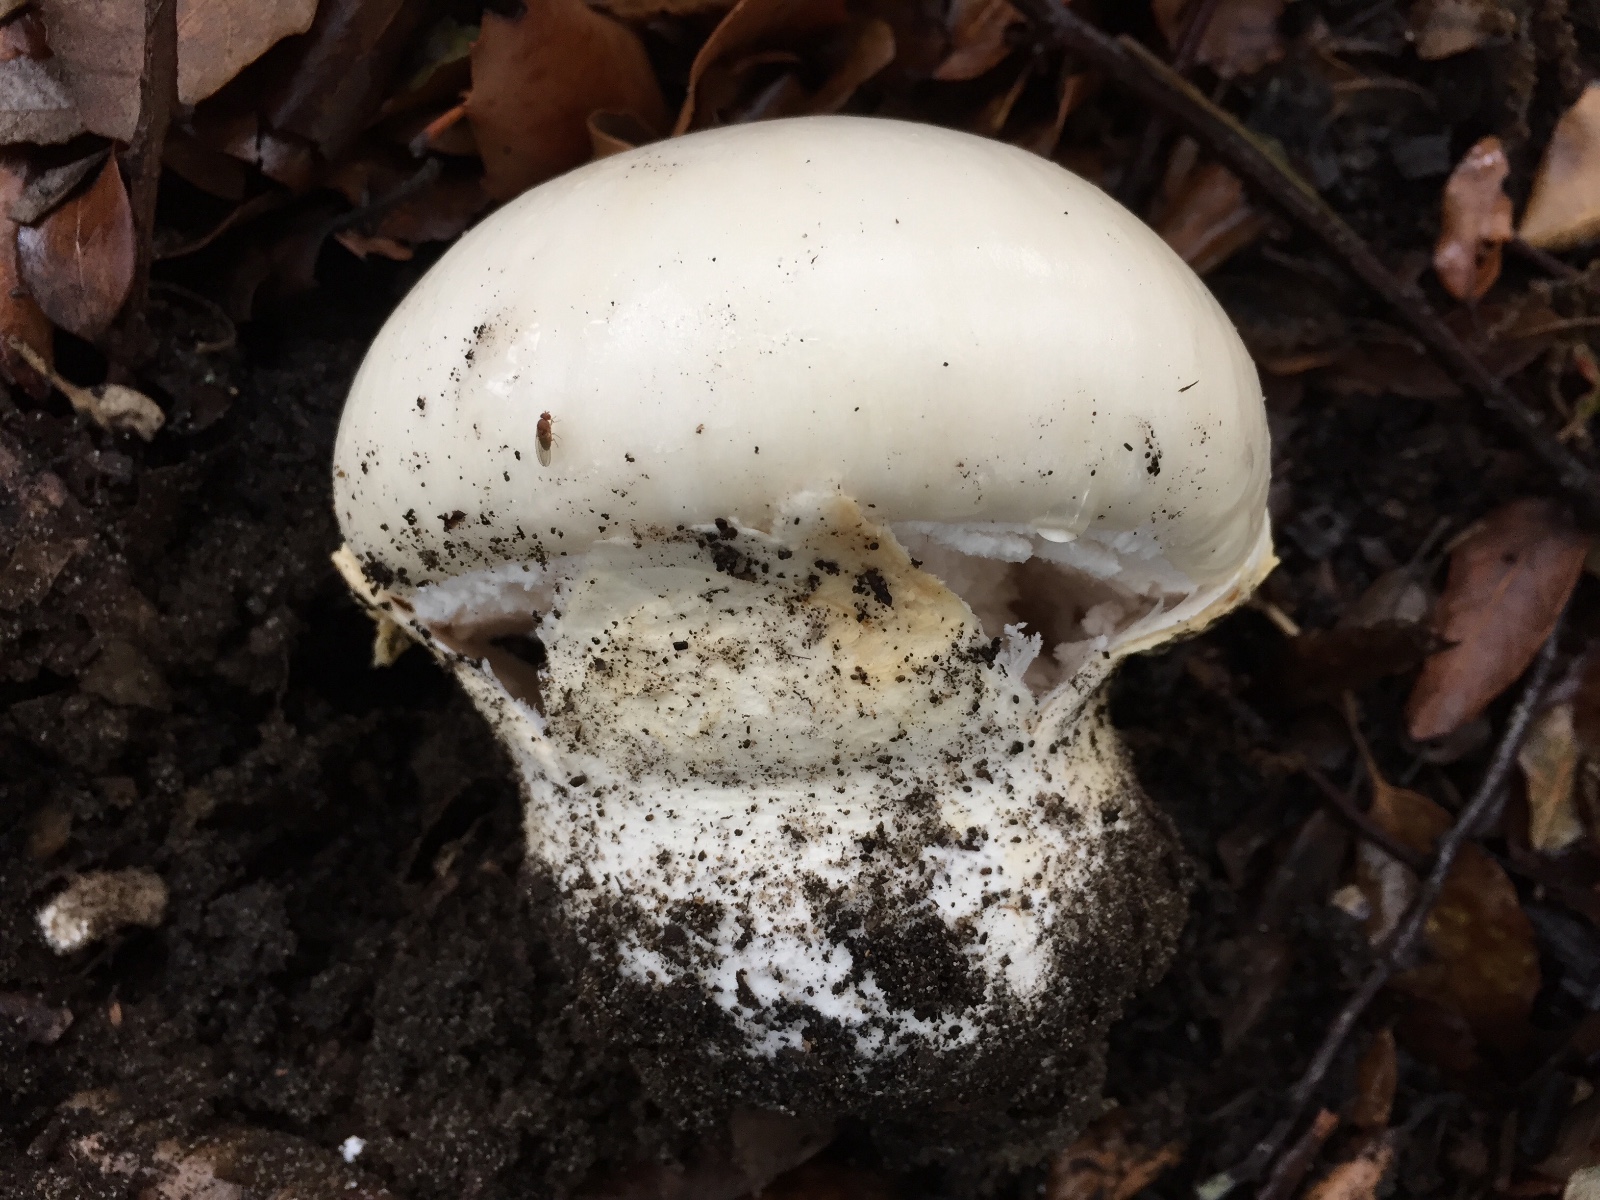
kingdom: Fungi
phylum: Basidiomycota
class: Agaricomycetes
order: Agaricales
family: Amanitaceae
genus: Amanita
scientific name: Amanita ovoidea
